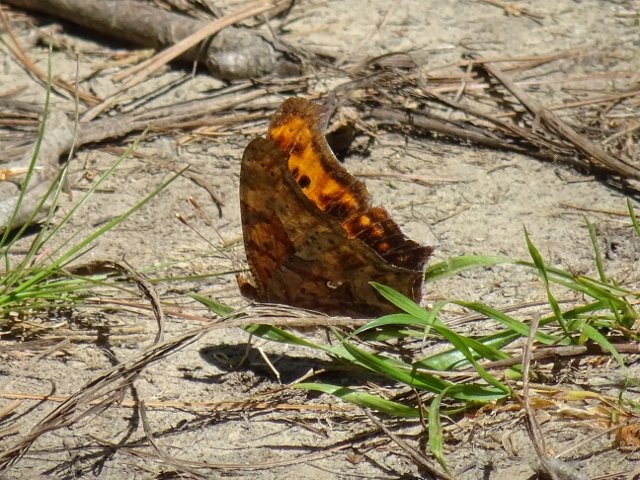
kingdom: Animalia
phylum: Arthropoda
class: Insecta
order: Lepidoptera
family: Nymphalidae
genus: Polygonia
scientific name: Polygonia interrogationis
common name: Question Mark
